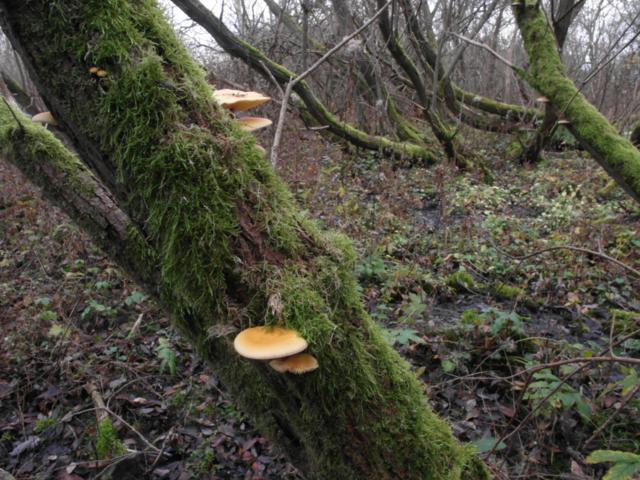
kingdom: Fungi
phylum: Basidiomycota
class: Agaricomycetes
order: Agaricales
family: Physalacriaceae
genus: Flammulina
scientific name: Flammulina velutipes
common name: gul fløjlsfod
